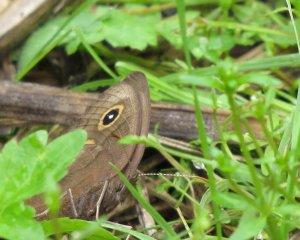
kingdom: Animalia
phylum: Arthropoda
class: Insecta
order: Lepidoptera
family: Nymphalidae
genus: Cercyonis
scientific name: Cercyonis pegala
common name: Common Wood-Nymph
